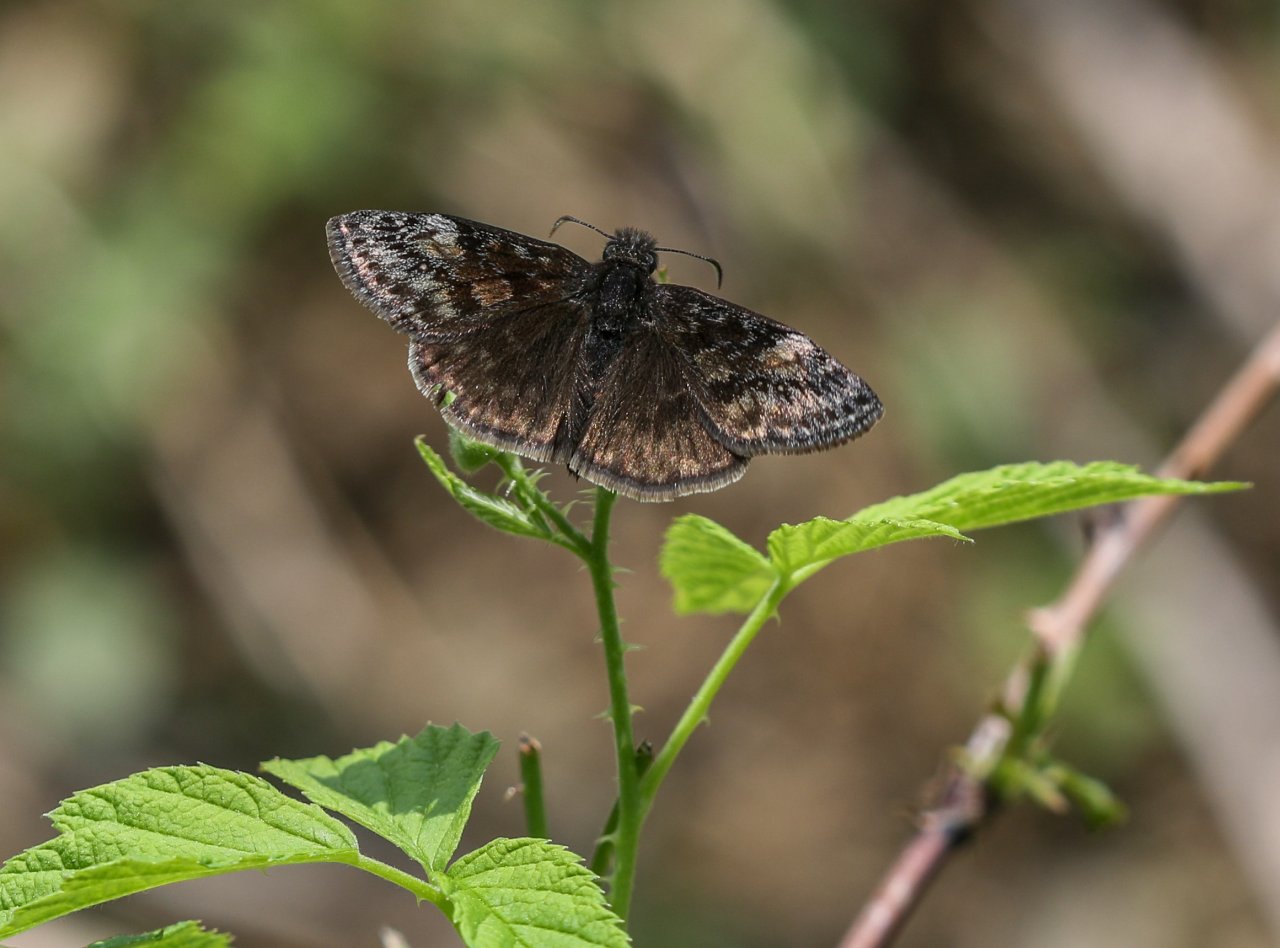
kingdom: Animalia
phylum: Arthropoda
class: Insecta
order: Lepidoptera
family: Hesperiidae
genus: Gesta
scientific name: Gesta
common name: Wild Indigo Duskywing
